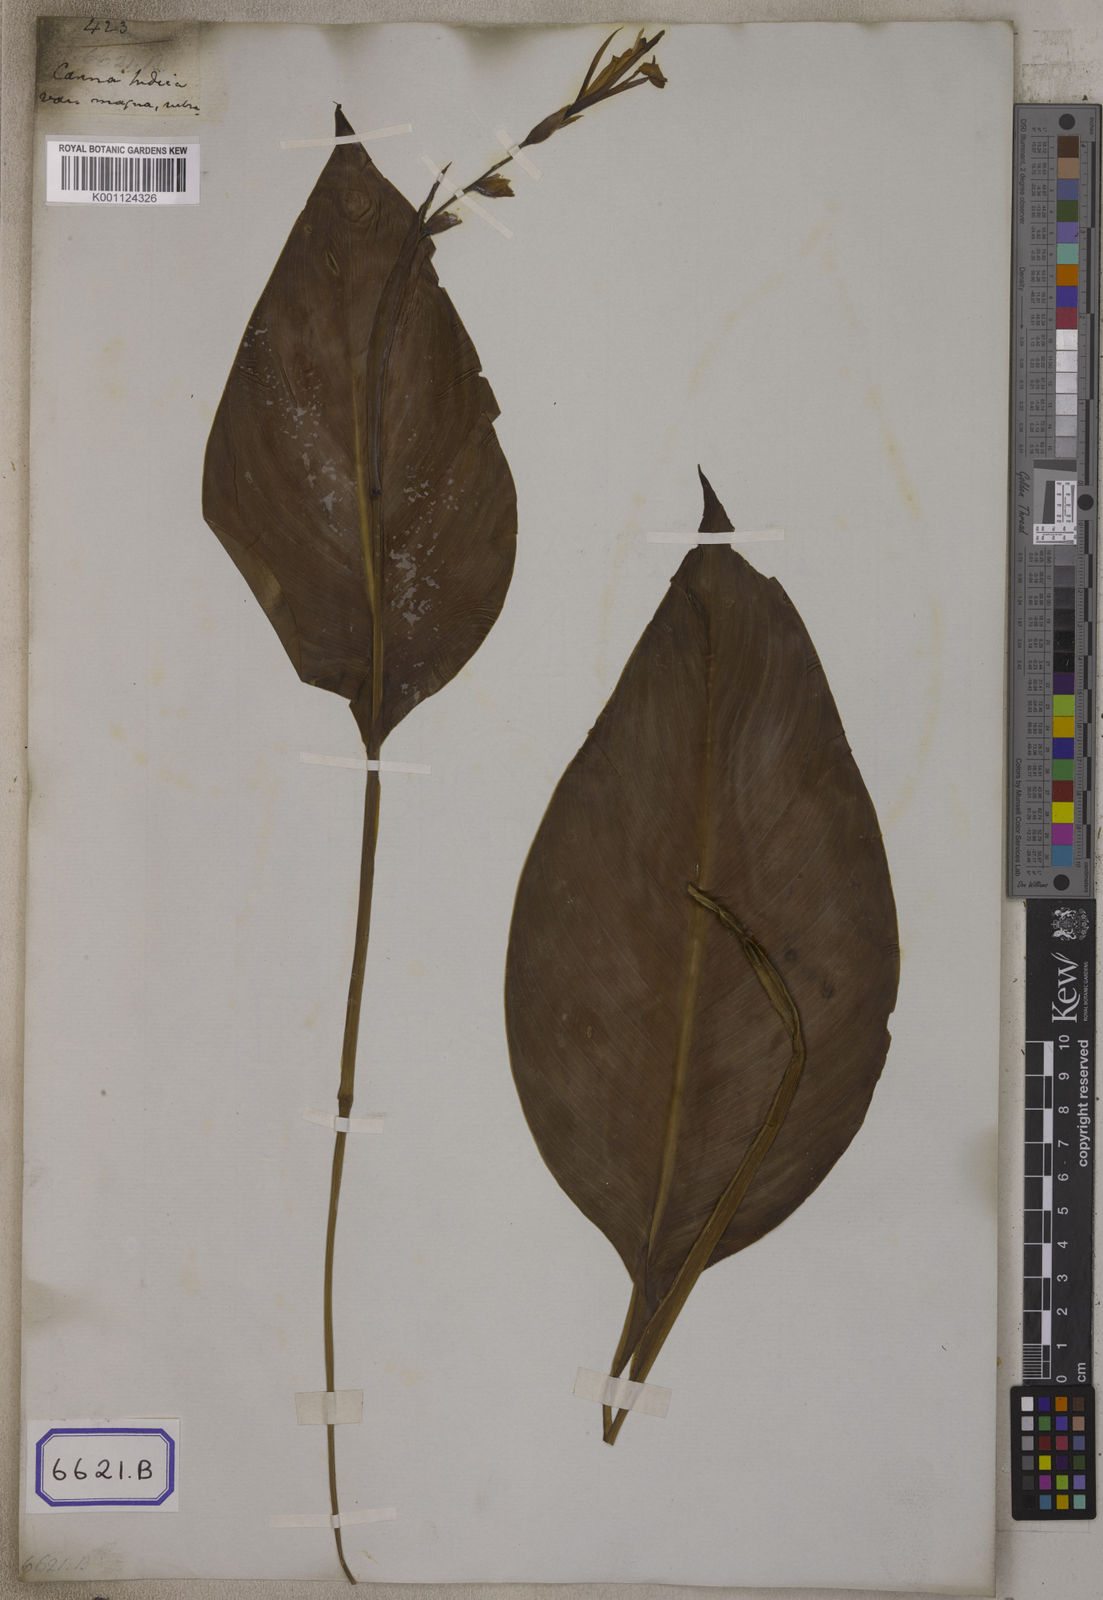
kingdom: Plantae
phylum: Tracheophyta
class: Liliopsida
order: Zingiberales
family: Cannaceae
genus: Canna
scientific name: Canna indica
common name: Indian shot
